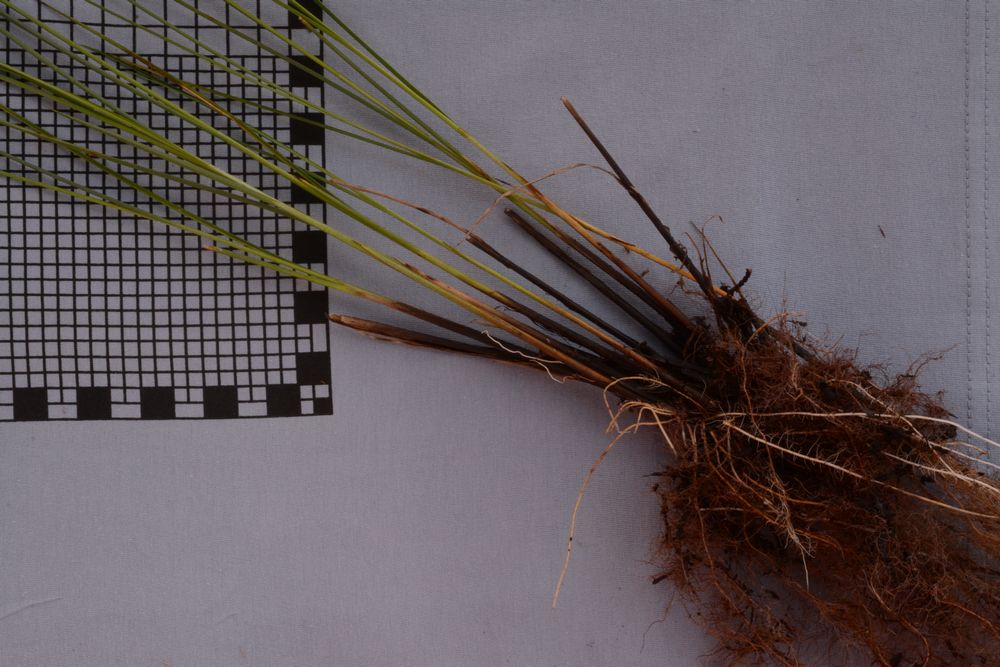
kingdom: Plantae
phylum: Tracheophyta
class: Liliopsida
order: Poales
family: Cyperaceae
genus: Carex
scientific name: Carex diandra
